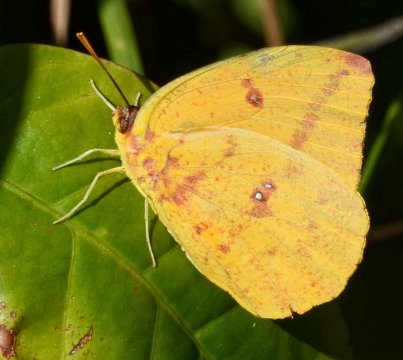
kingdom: Animalia
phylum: Arthropoda
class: Insecta
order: Lepidoptera
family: Pieridae
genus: Phoebis
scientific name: Phoebis agarithe
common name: Large Orange Sulphur
